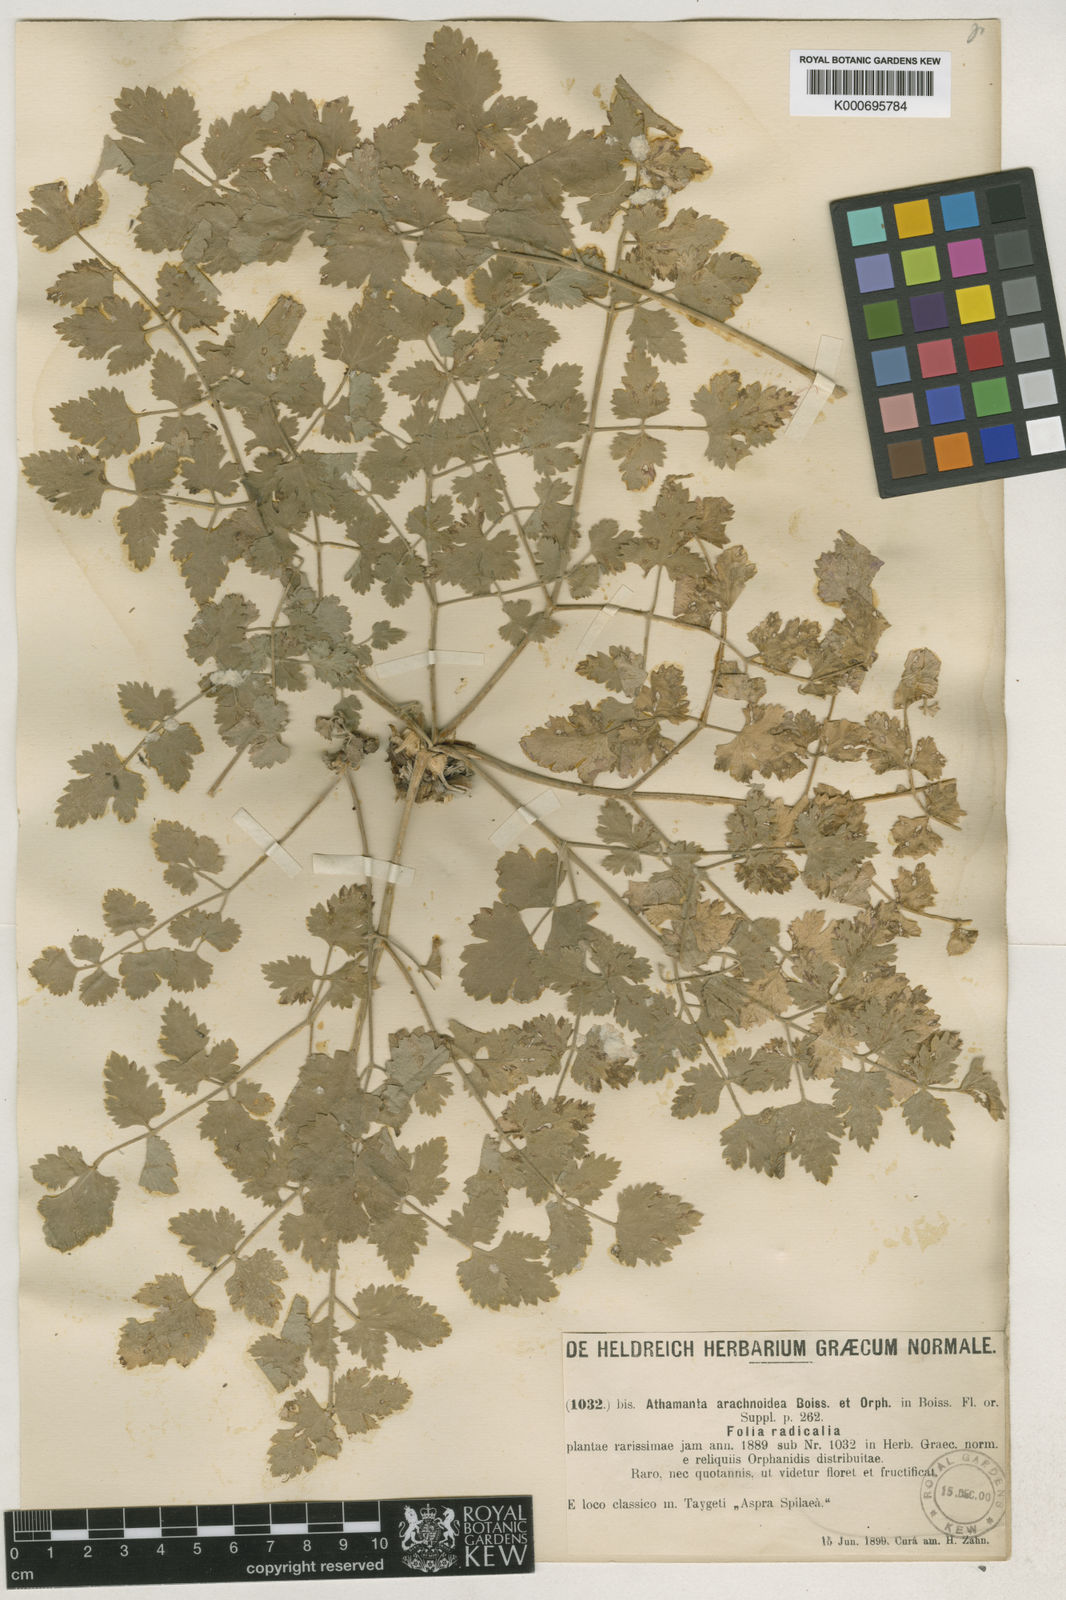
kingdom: Plantae
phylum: Tracheophyta
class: Magnoliopsida
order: Apiales
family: Apiaceae
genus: Bubon
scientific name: Bubon macedonicum
